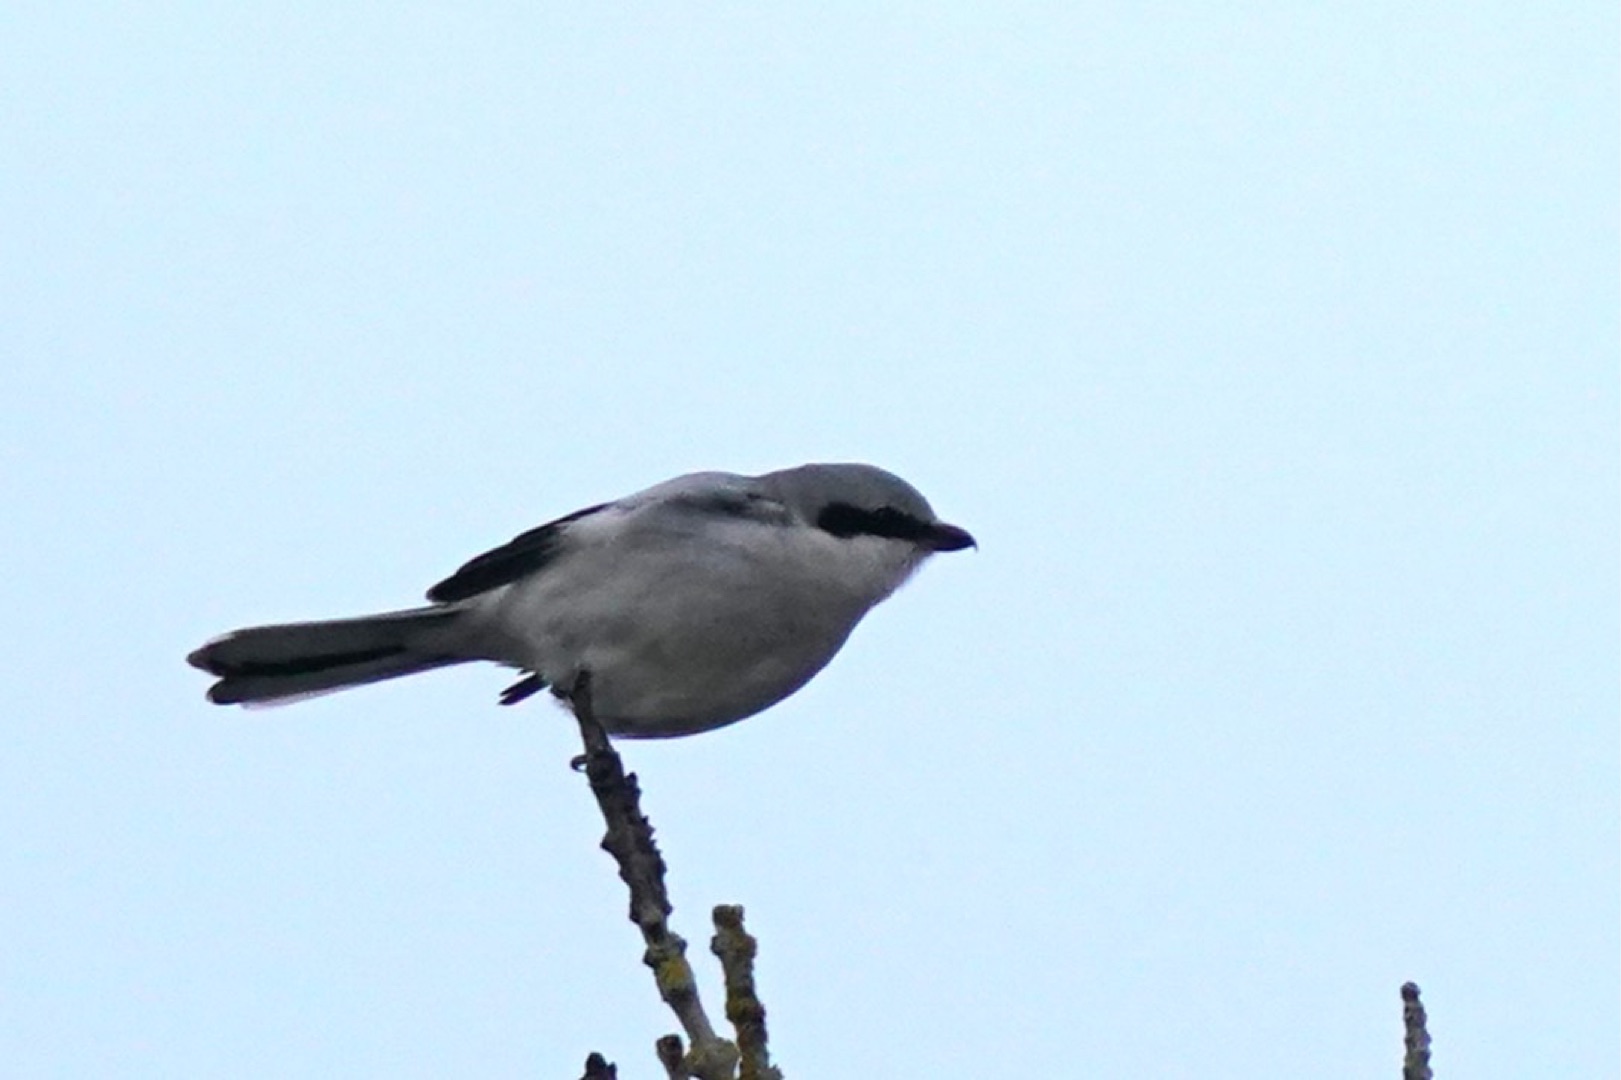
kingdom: Animalia
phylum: Chordata
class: Aves
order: Passeriformes
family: Laniidae
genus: Lanius
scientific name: Lanius excubitor
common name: Stor tornskade
